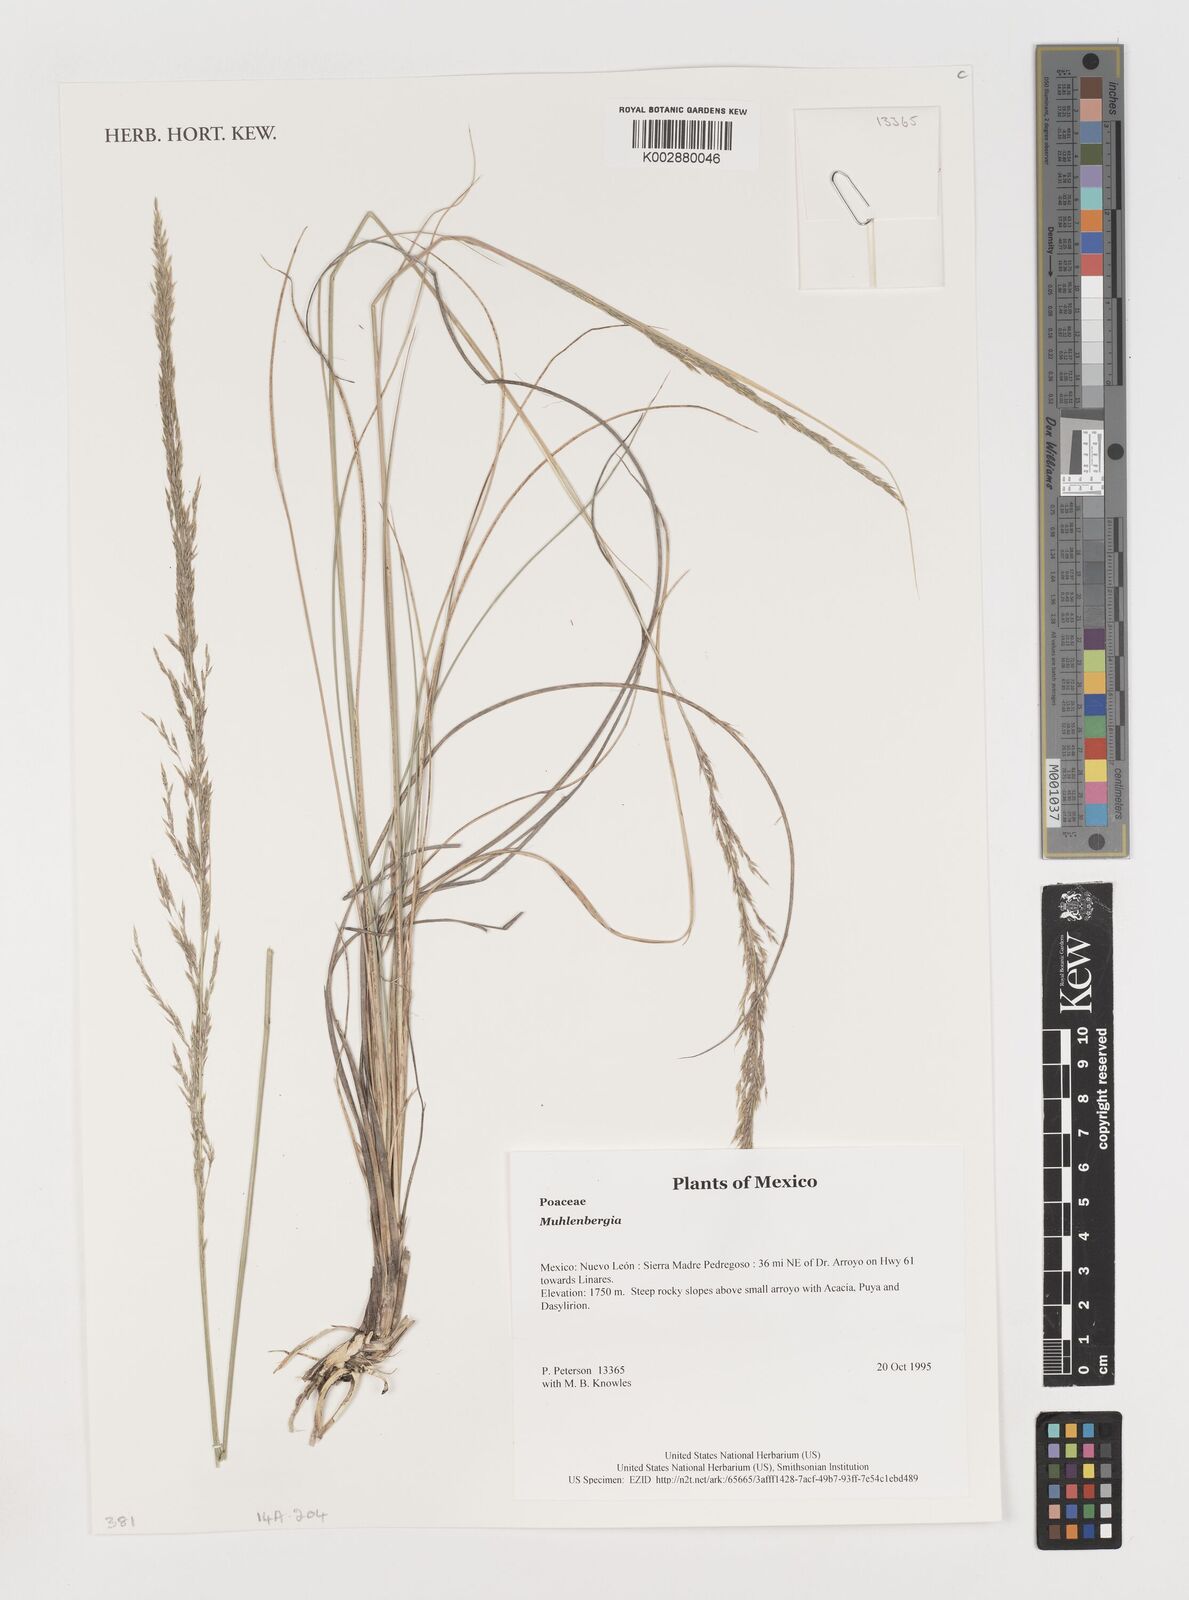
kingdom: Plantae
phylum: Tracheophyta
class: Liliopsida
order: Poales
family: Poaceae
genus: Muhlenbergia
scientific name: Muhlenbergia
